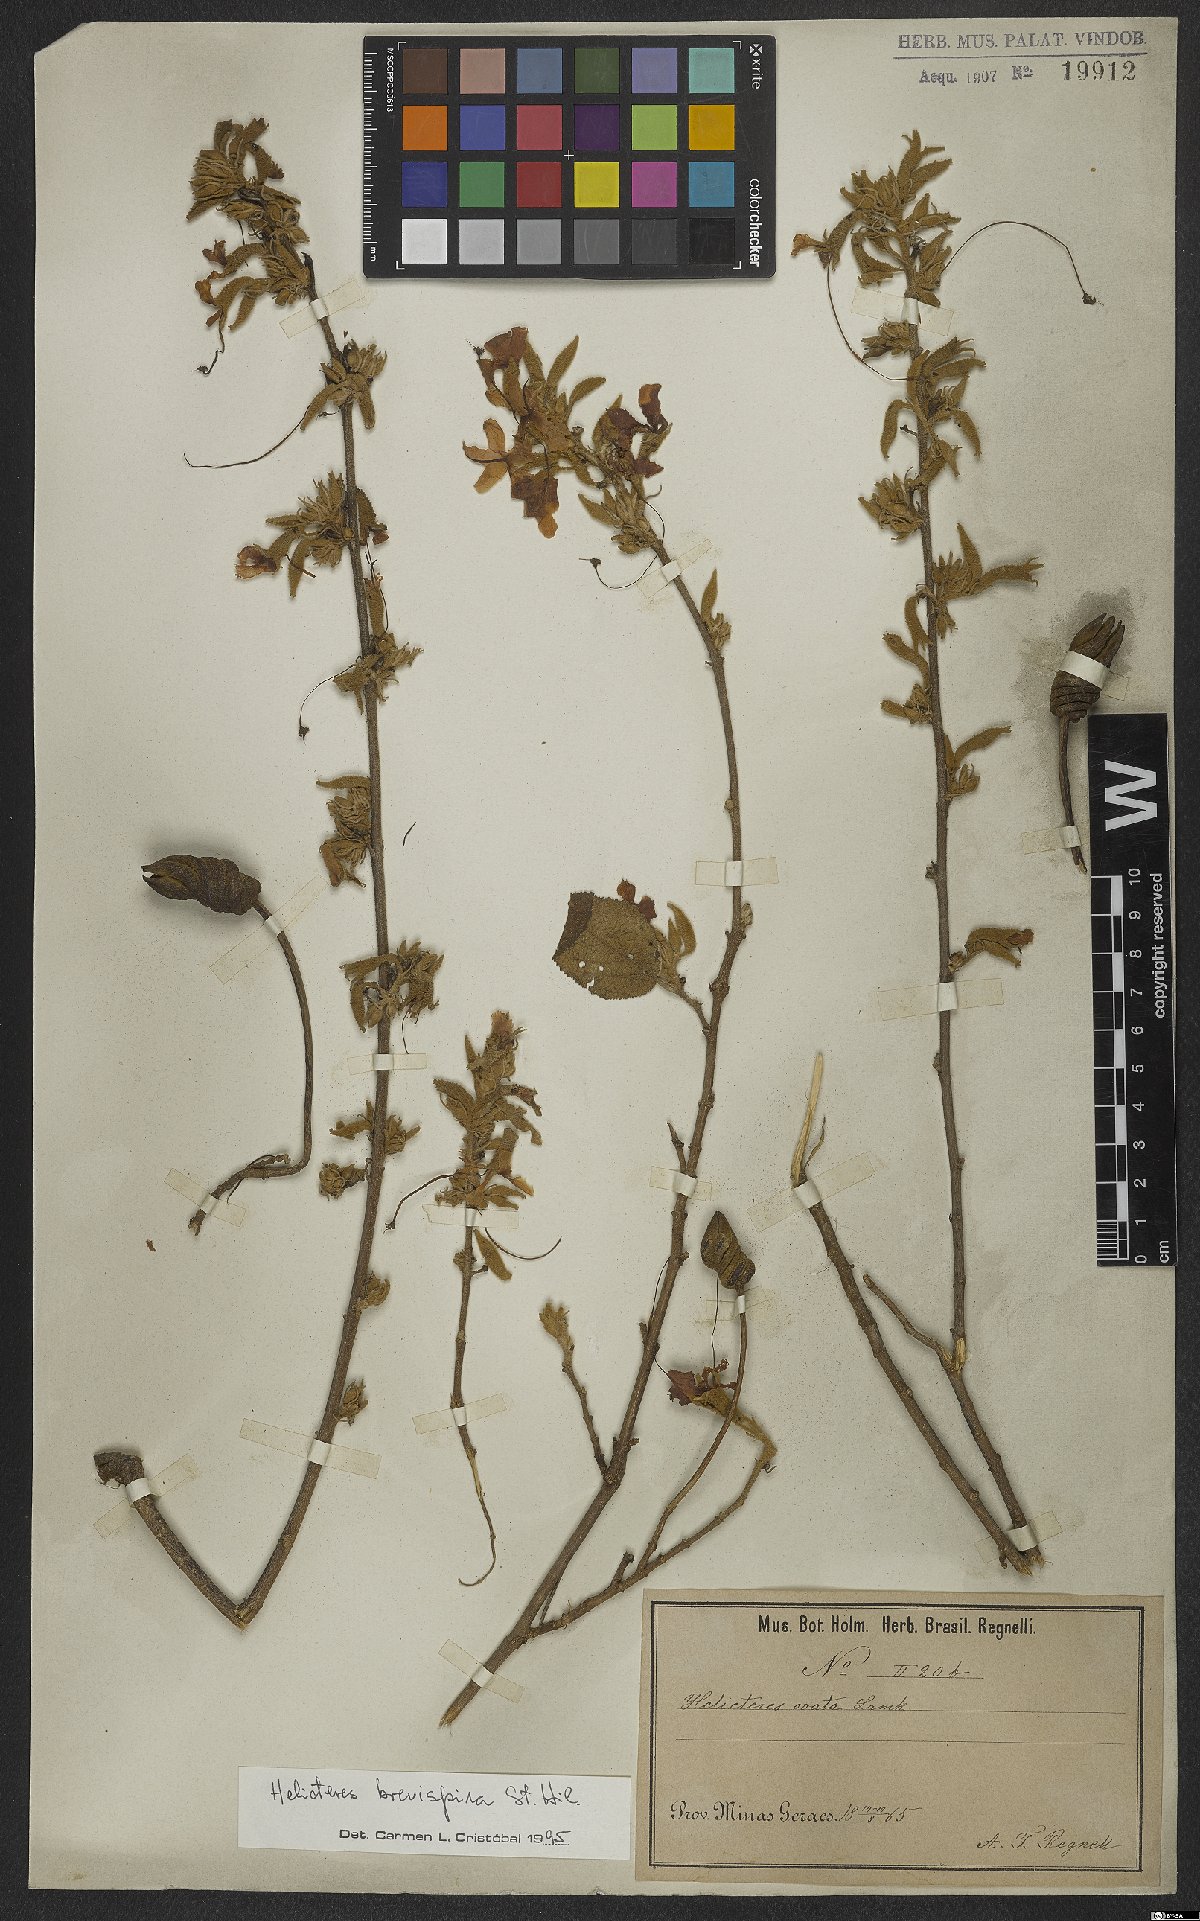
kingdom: Plantae
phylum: Tracheophyta
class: Magnoliopsida
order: Malvales
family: Malvaceae
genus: Helicteres
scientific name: Helicteres brevispira
